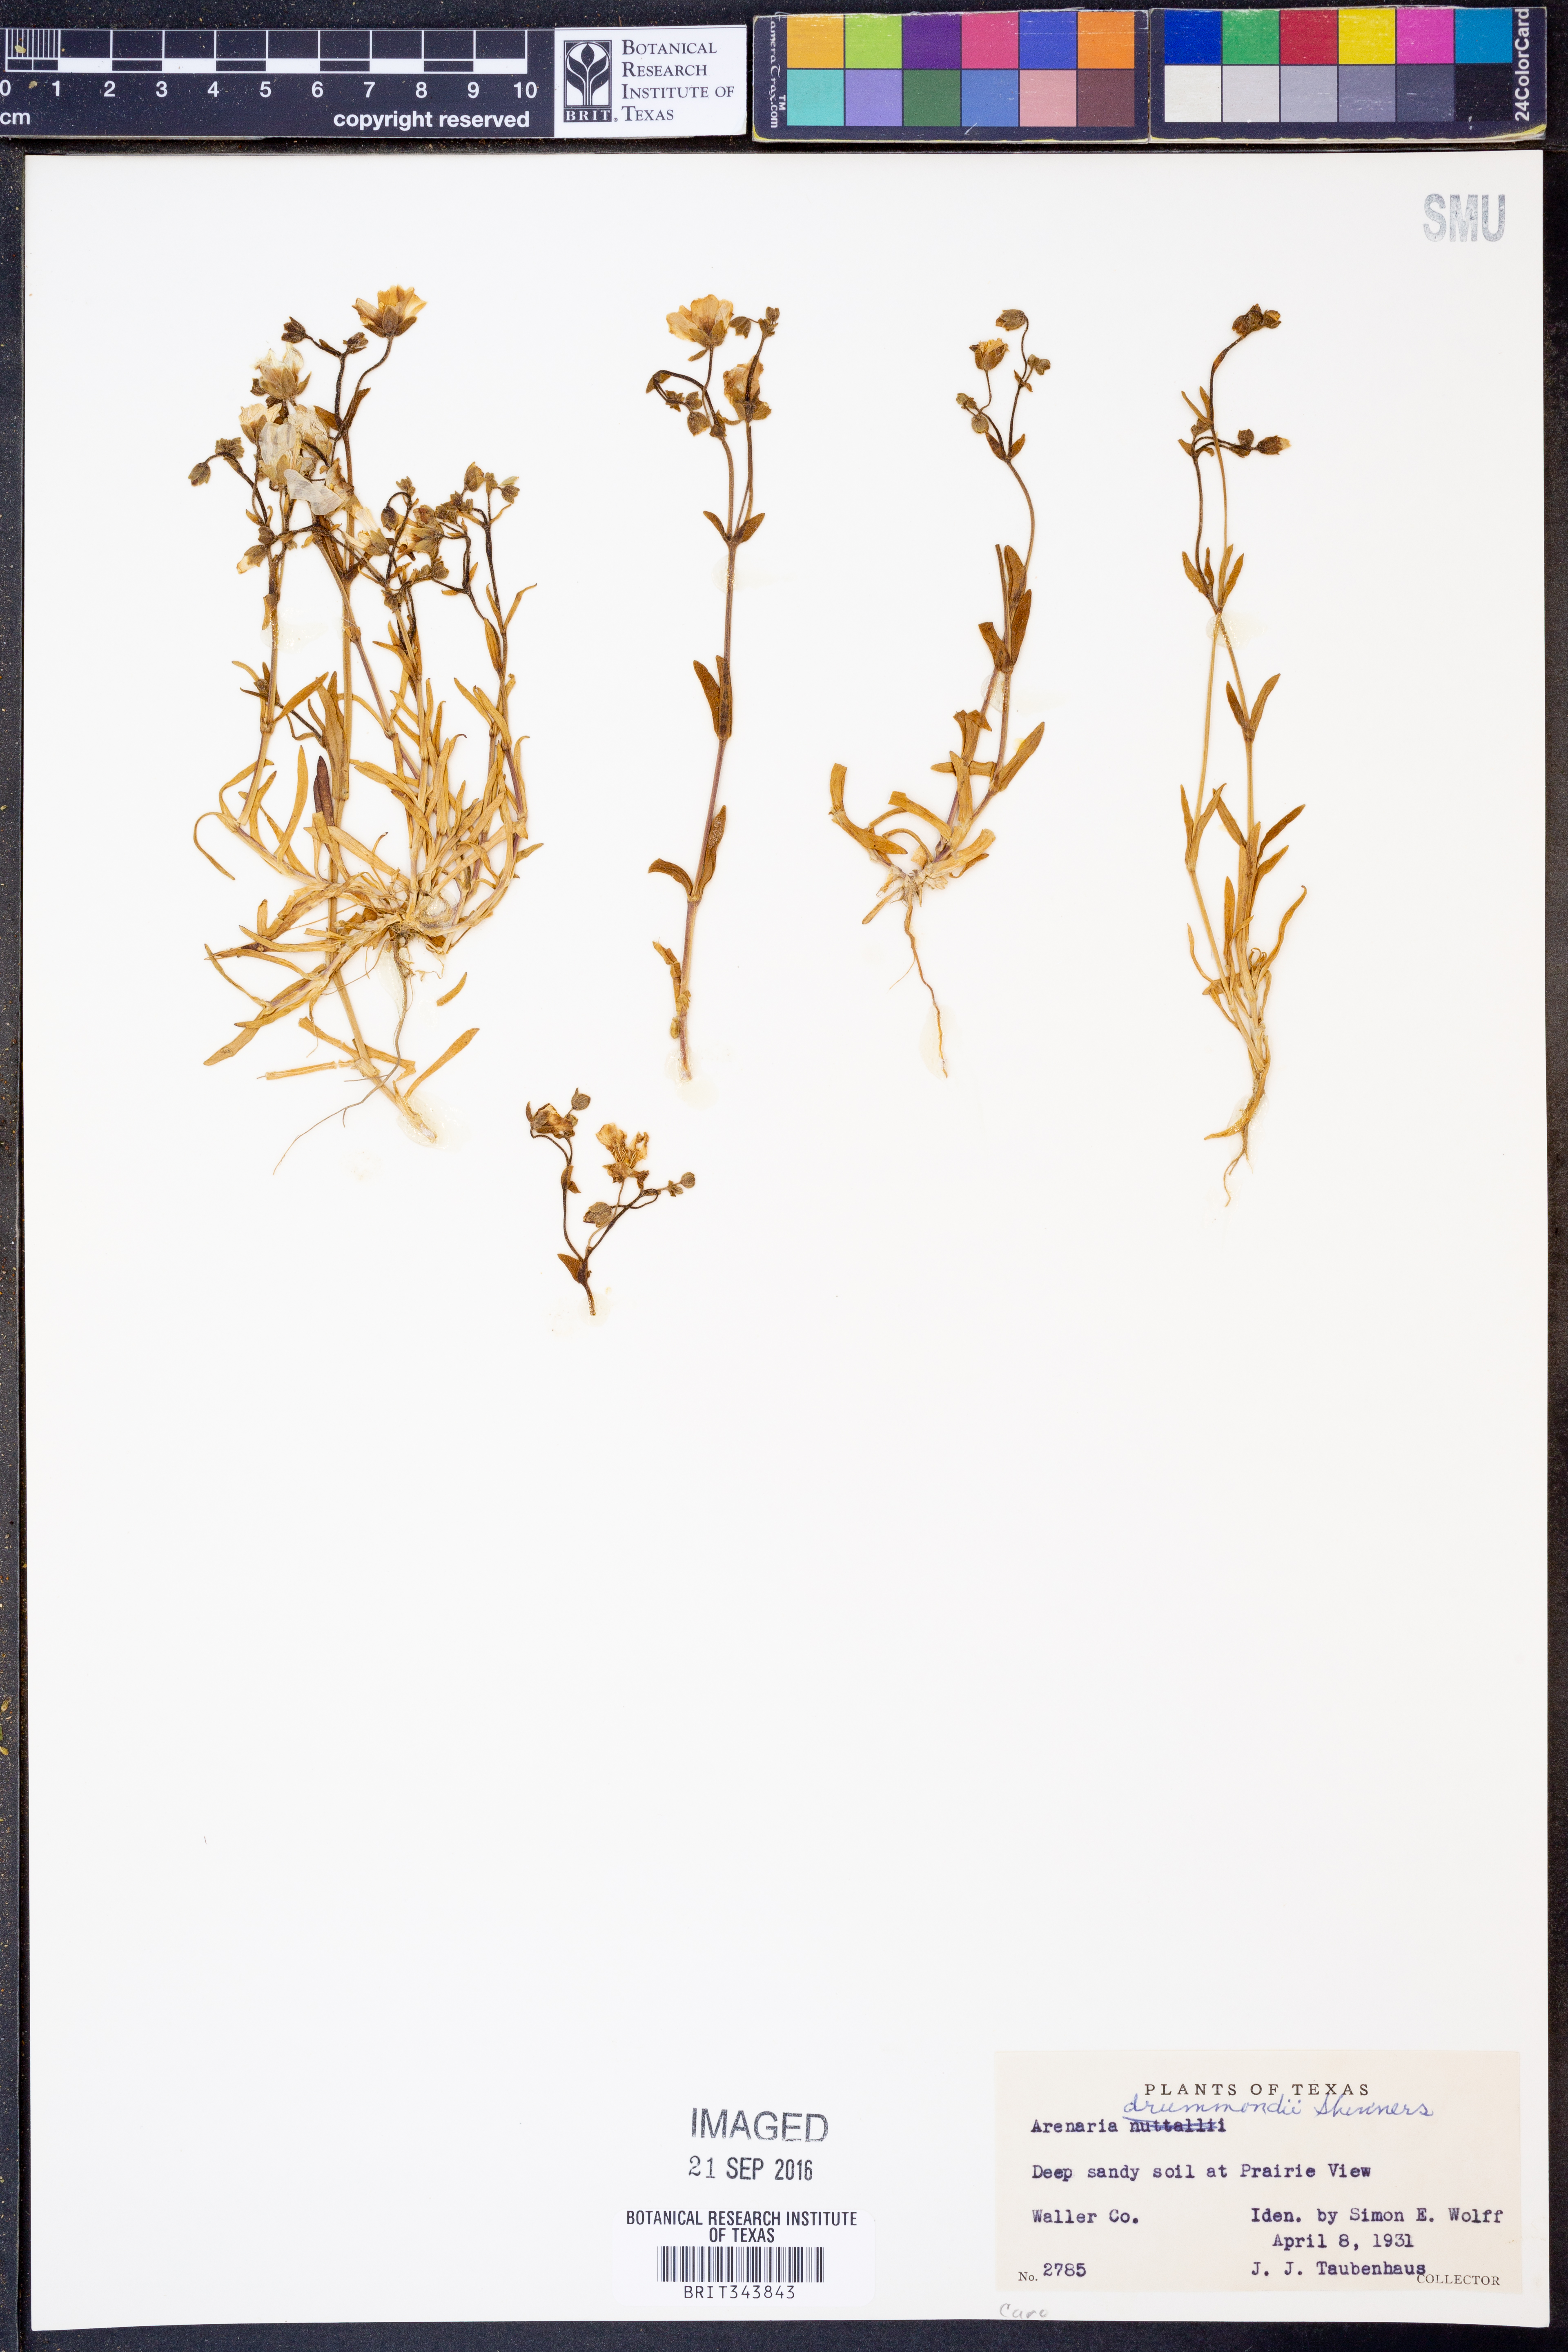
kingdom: Plantae
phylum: Tracheophyta
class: Magnoliopsida
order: Caryophyllales
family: Caryophyllaceae
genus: Geocarpon
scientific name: Geocarpon nuttallii
